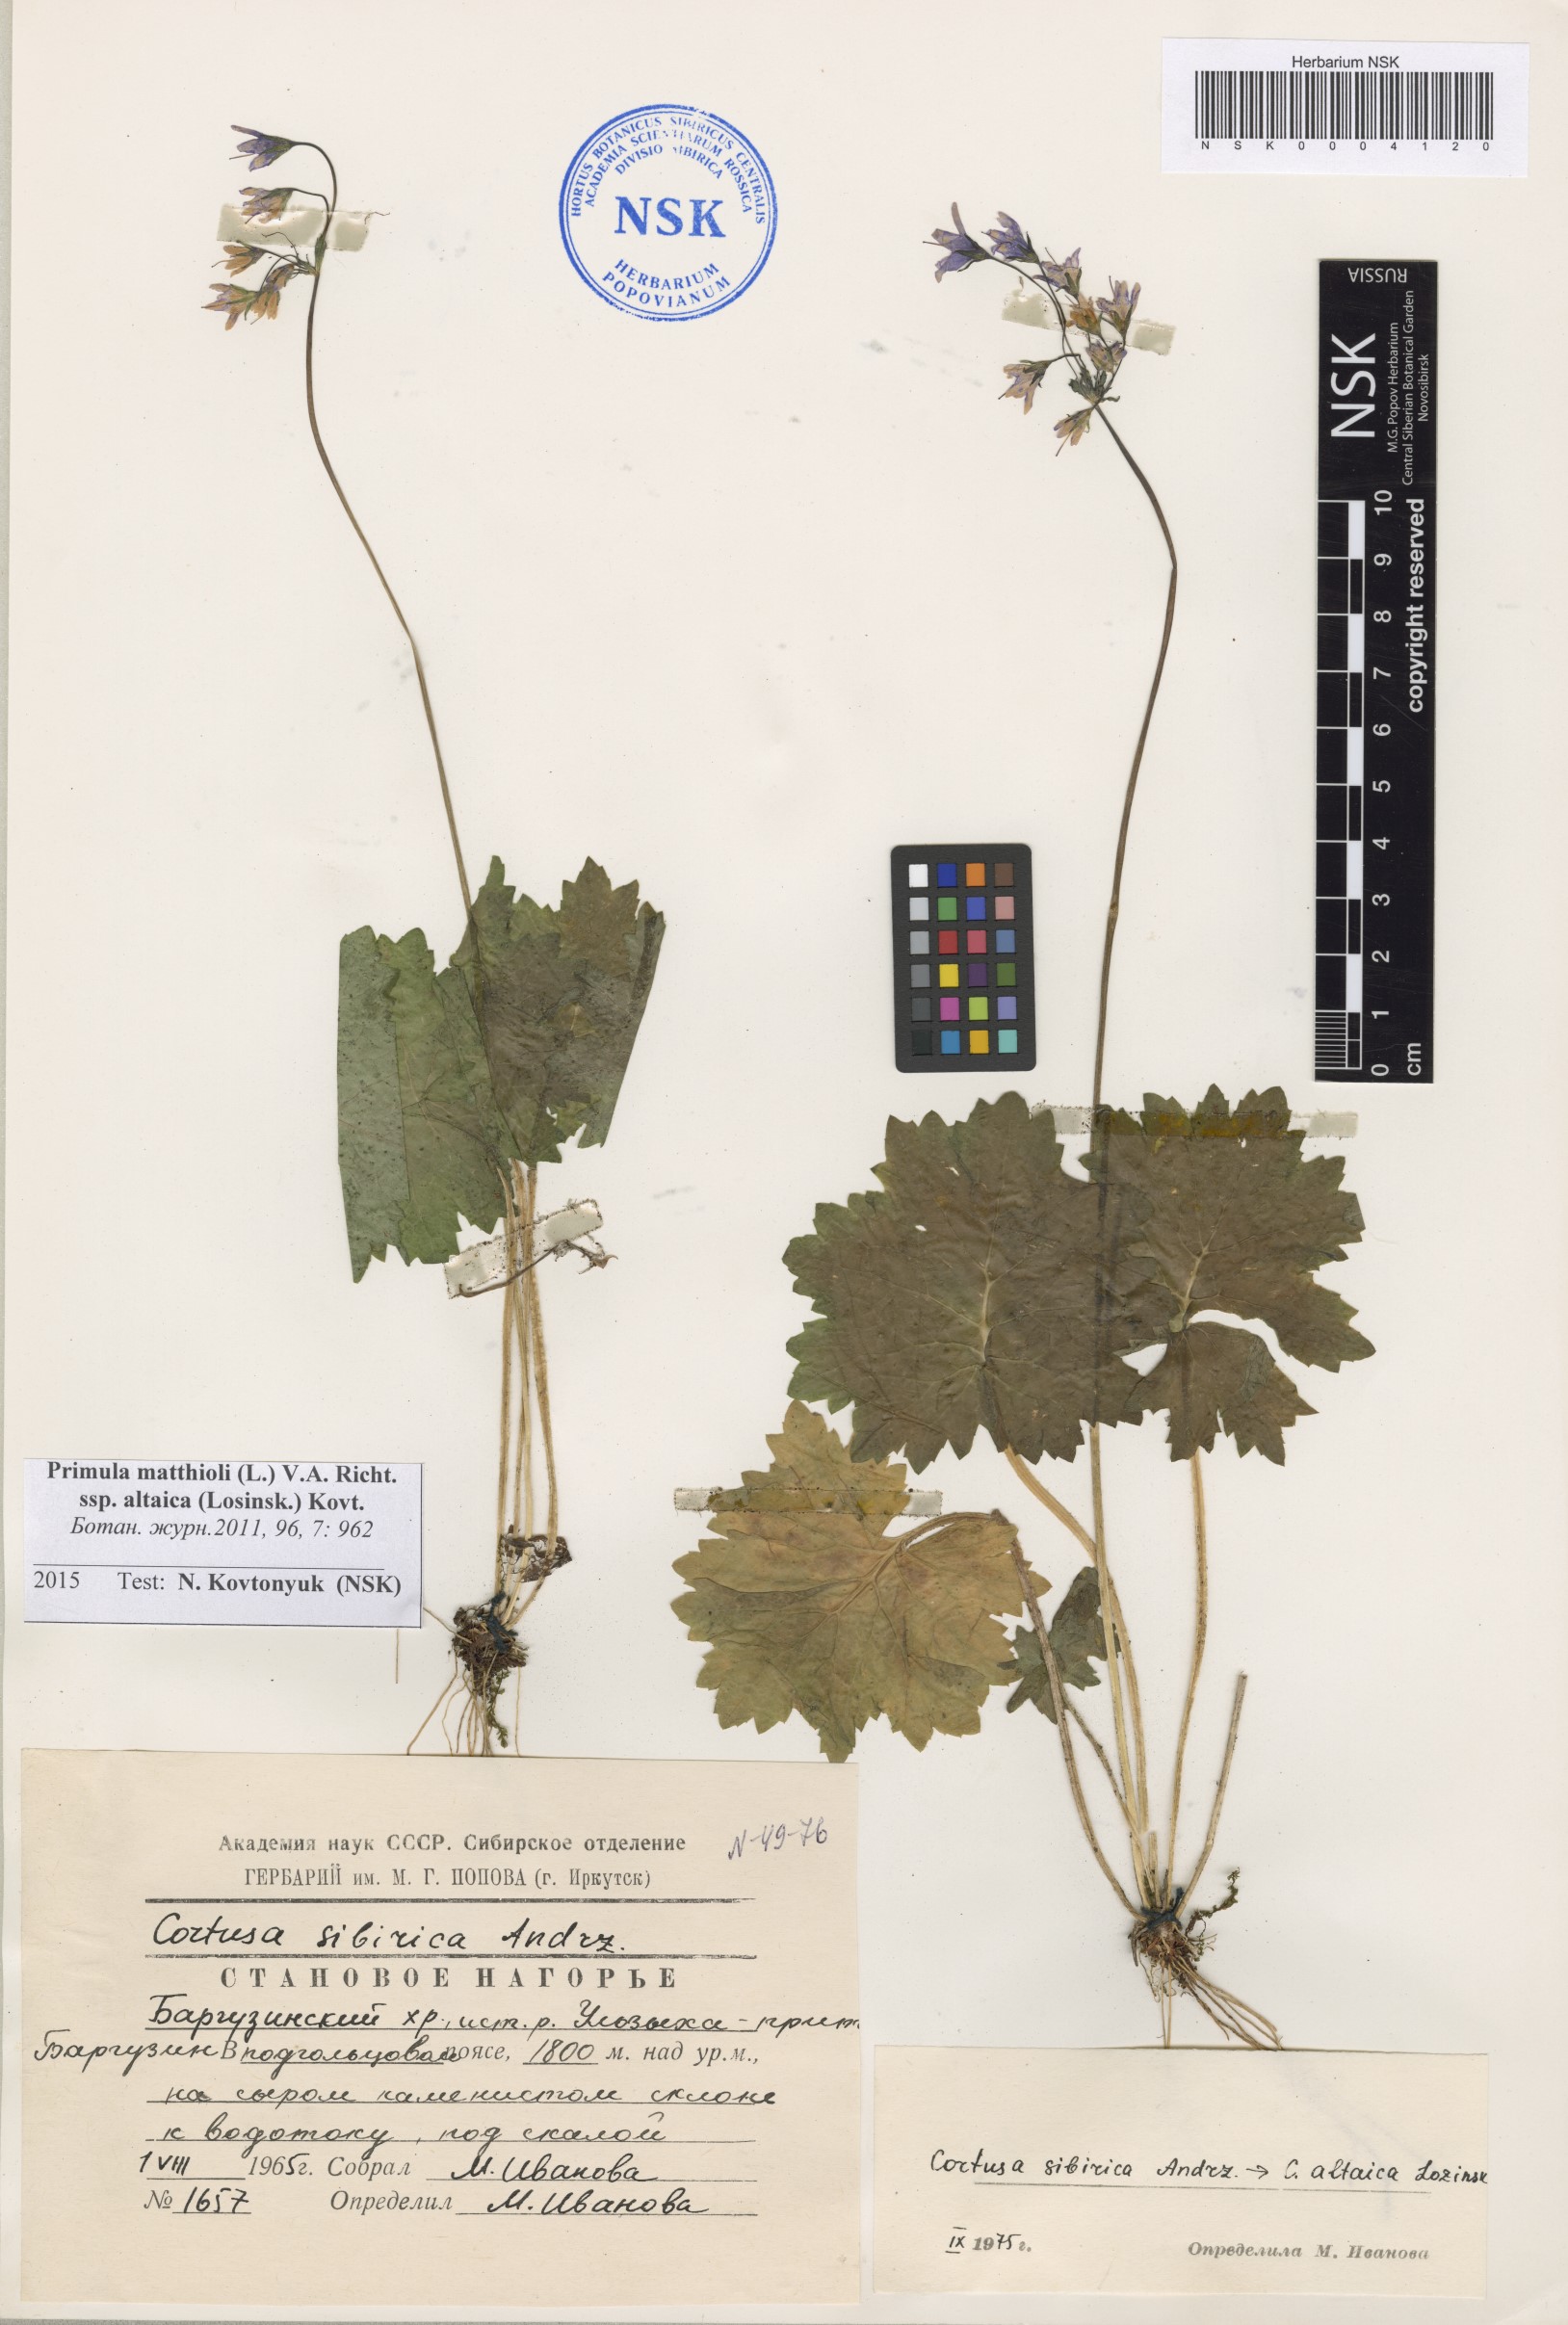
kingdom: Plantae
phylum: Tracheophyta
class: Magnoliopsida
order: Ericales
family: Primulaceae
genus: Primula
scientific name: Primula matthioli
